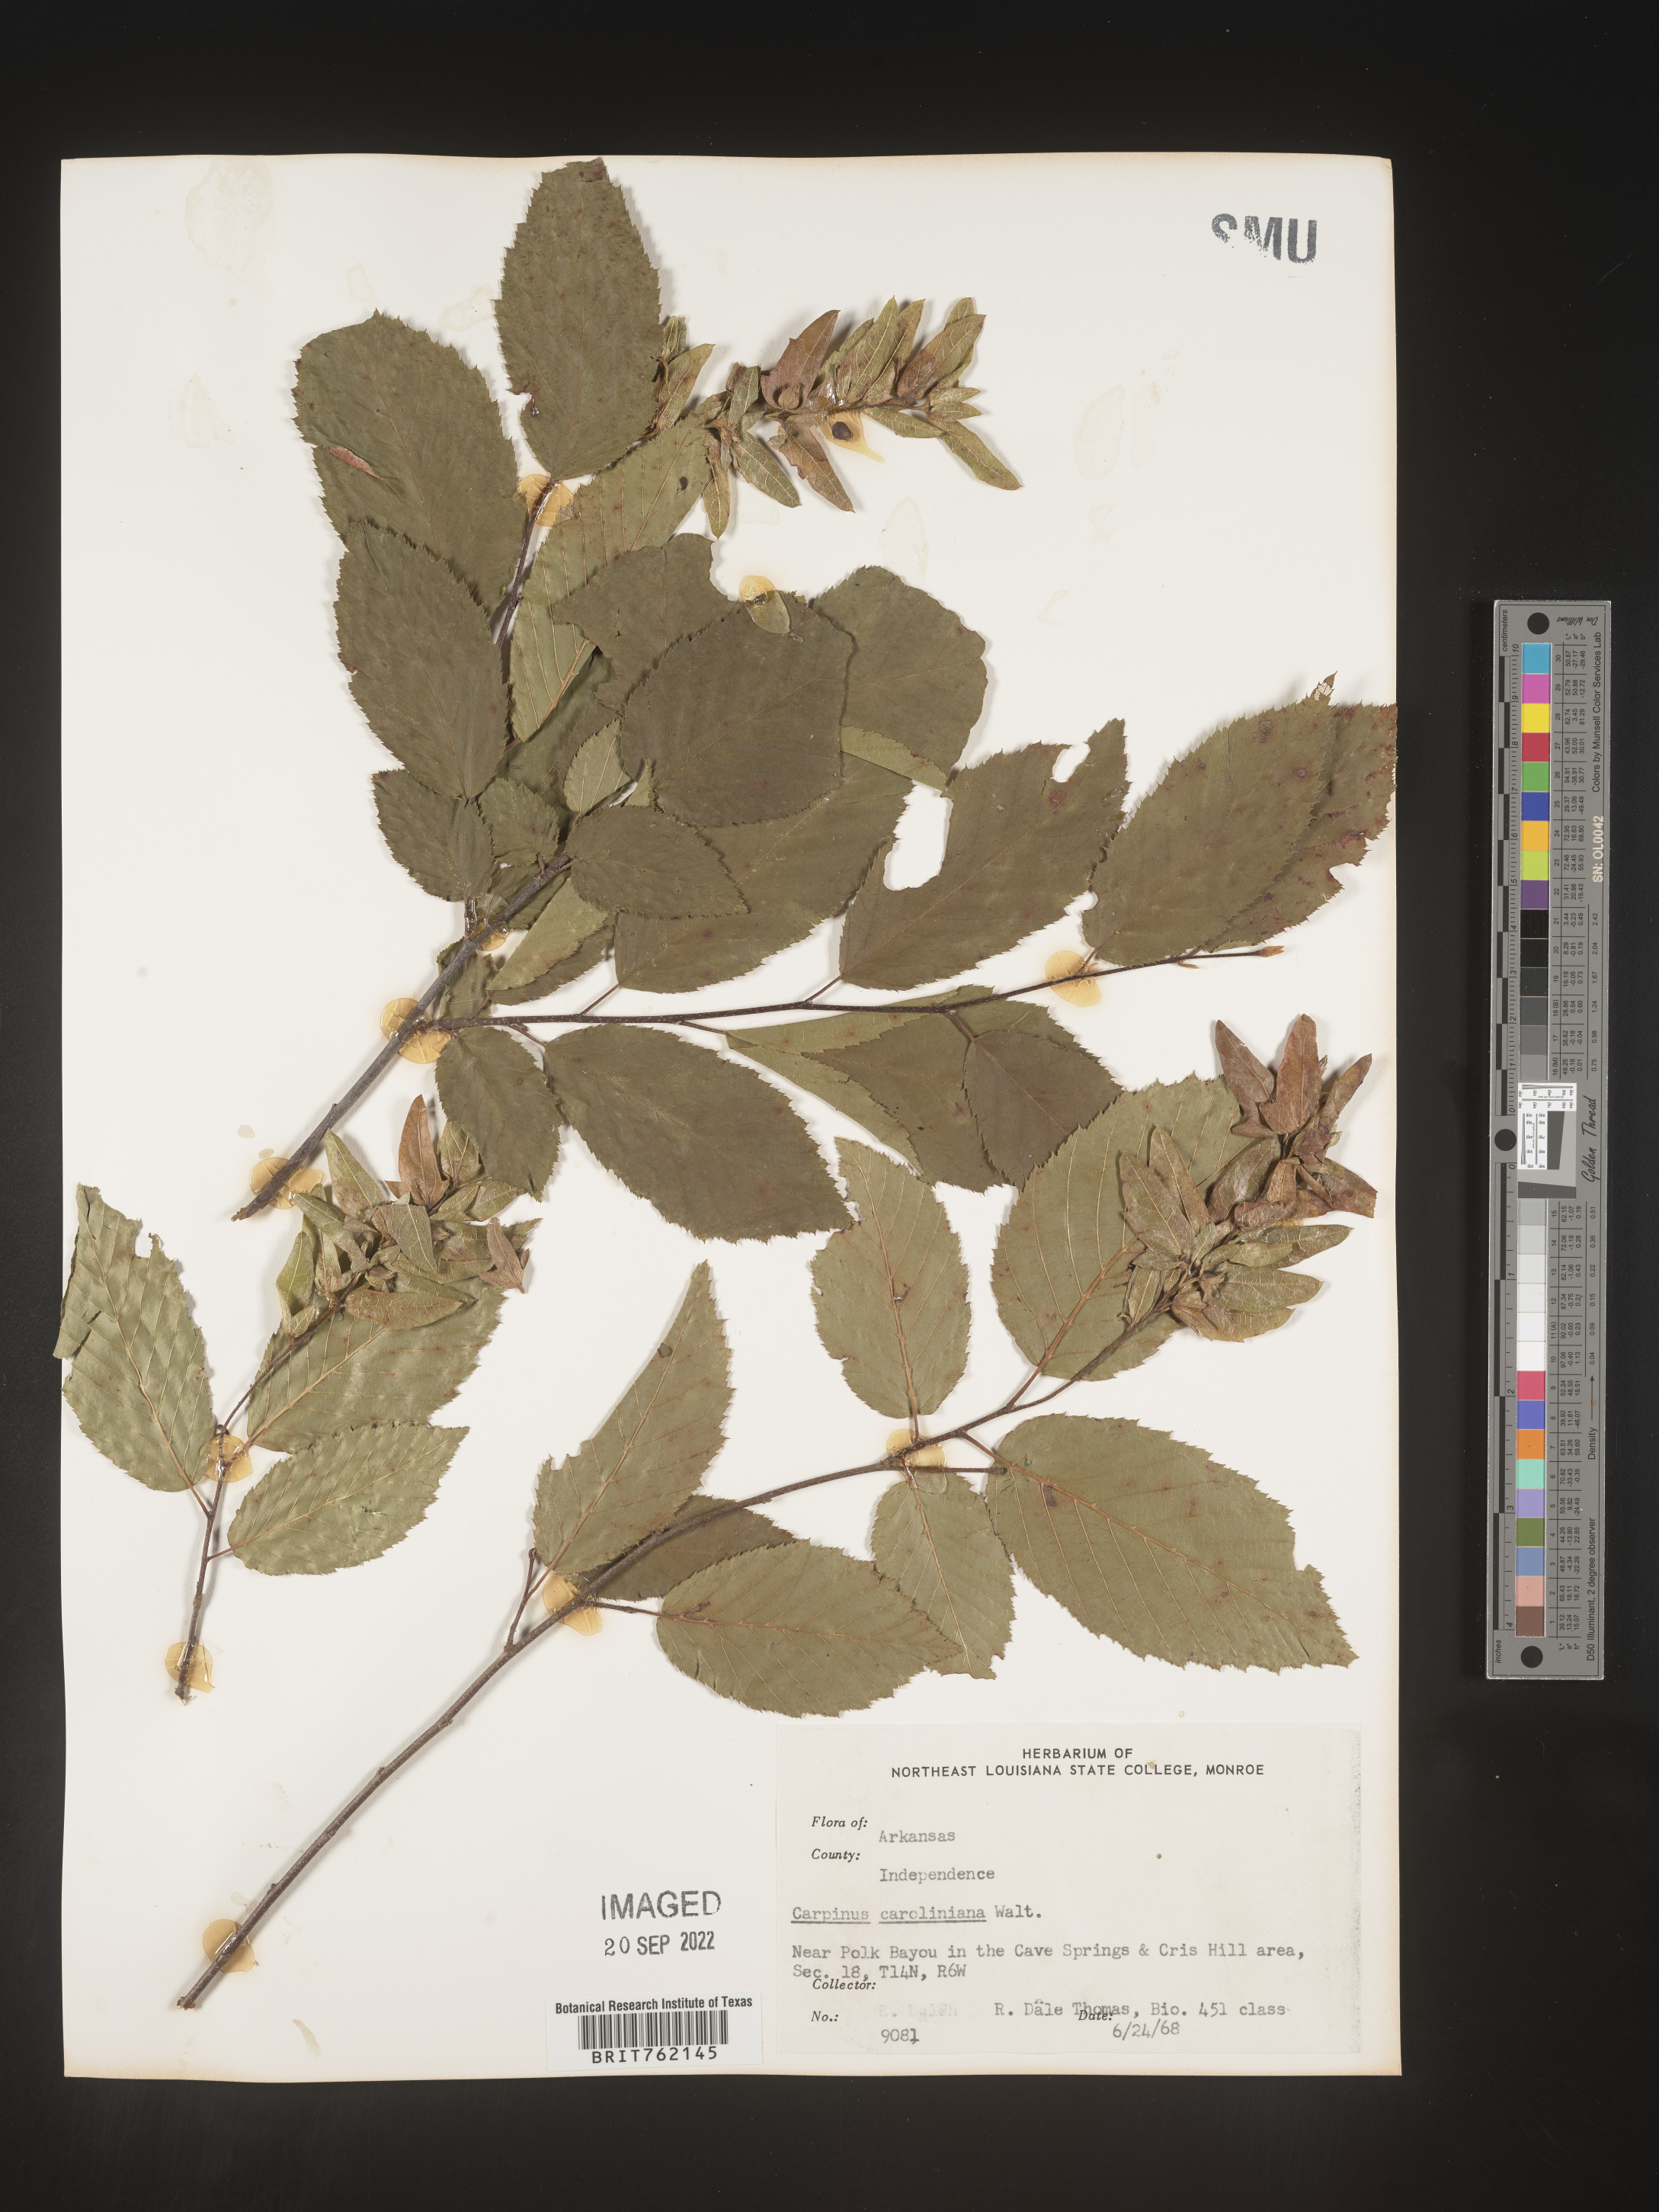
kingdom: Plantae
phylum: Tracheophyta
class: Magnoliopsida
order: Fagales
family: Betulaceae
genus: Carpinus
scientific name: Carpinus caroliniana
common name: American hornbeam
